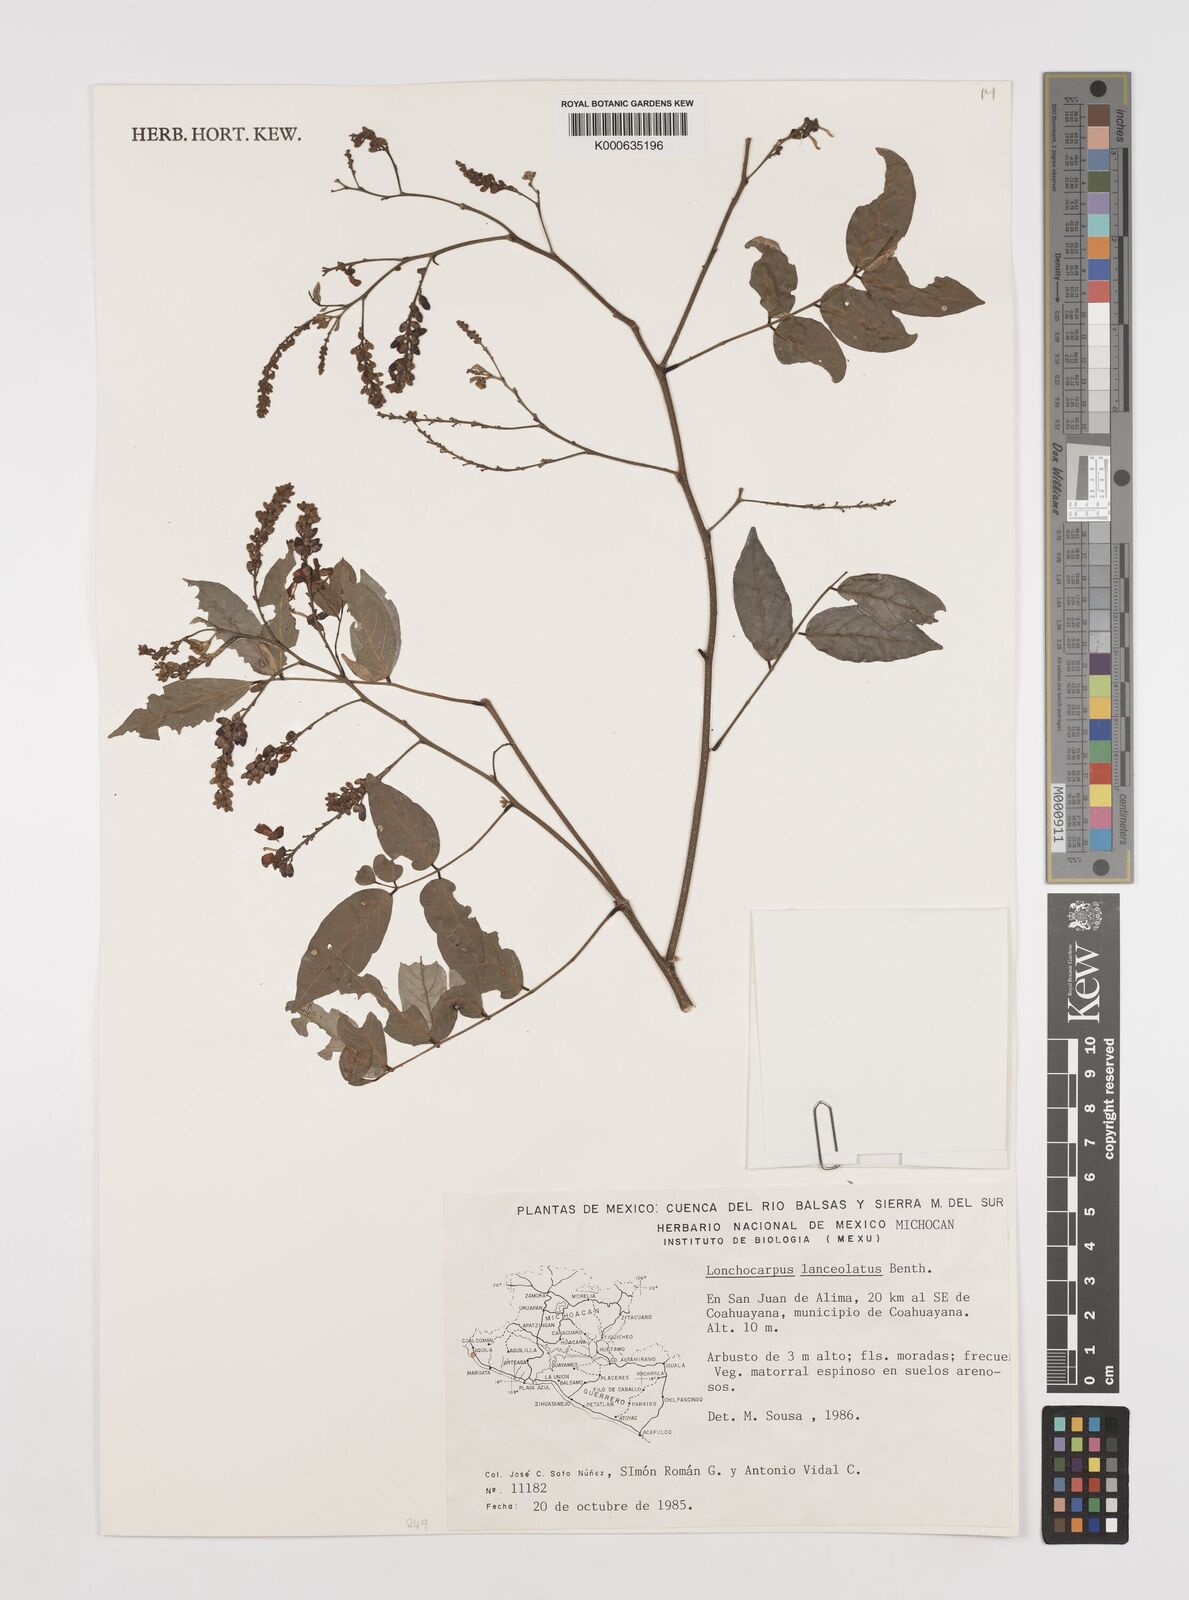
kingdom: Plantae
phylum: Tracheophyta
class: Magnoliopsida
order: Fabales
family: Fabaceae
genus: Lonchocarpus
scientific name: Lonchocarpus lanceolatus
